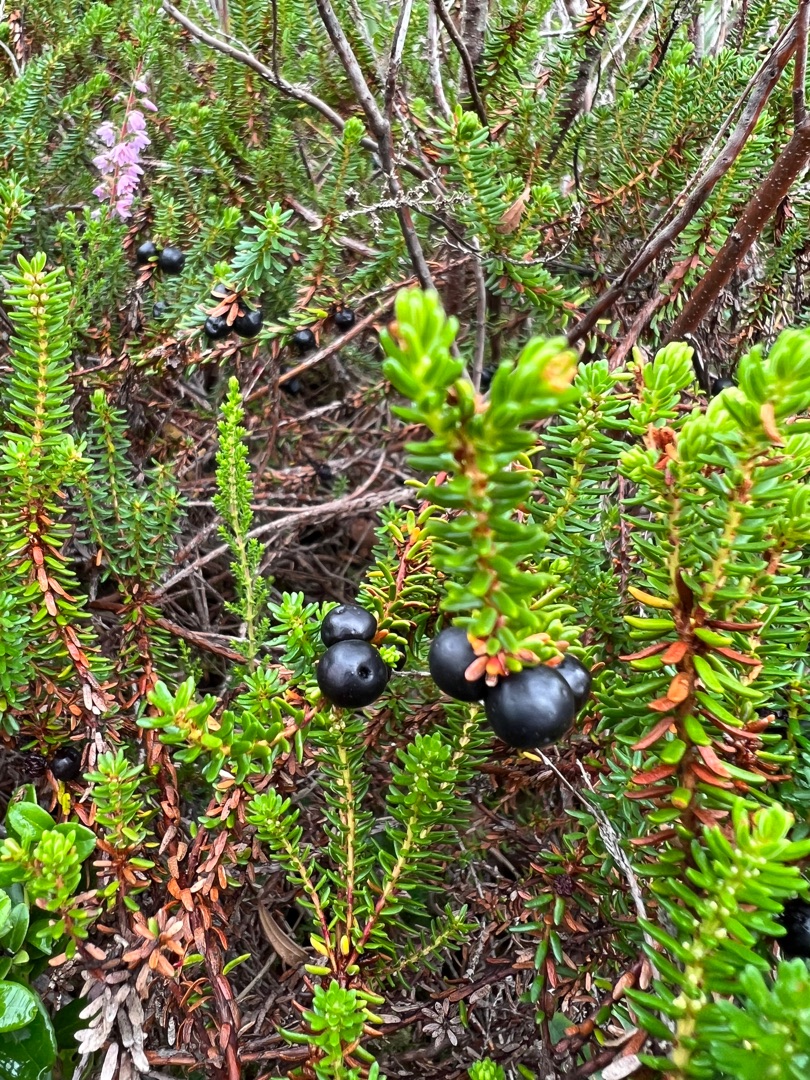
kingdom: Plantae
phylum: Tracheophyta
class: Magnoliopsida
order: Ericales
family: Ericaceae
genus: Empetrum
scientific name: Empetrum nigrum
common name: Revling
